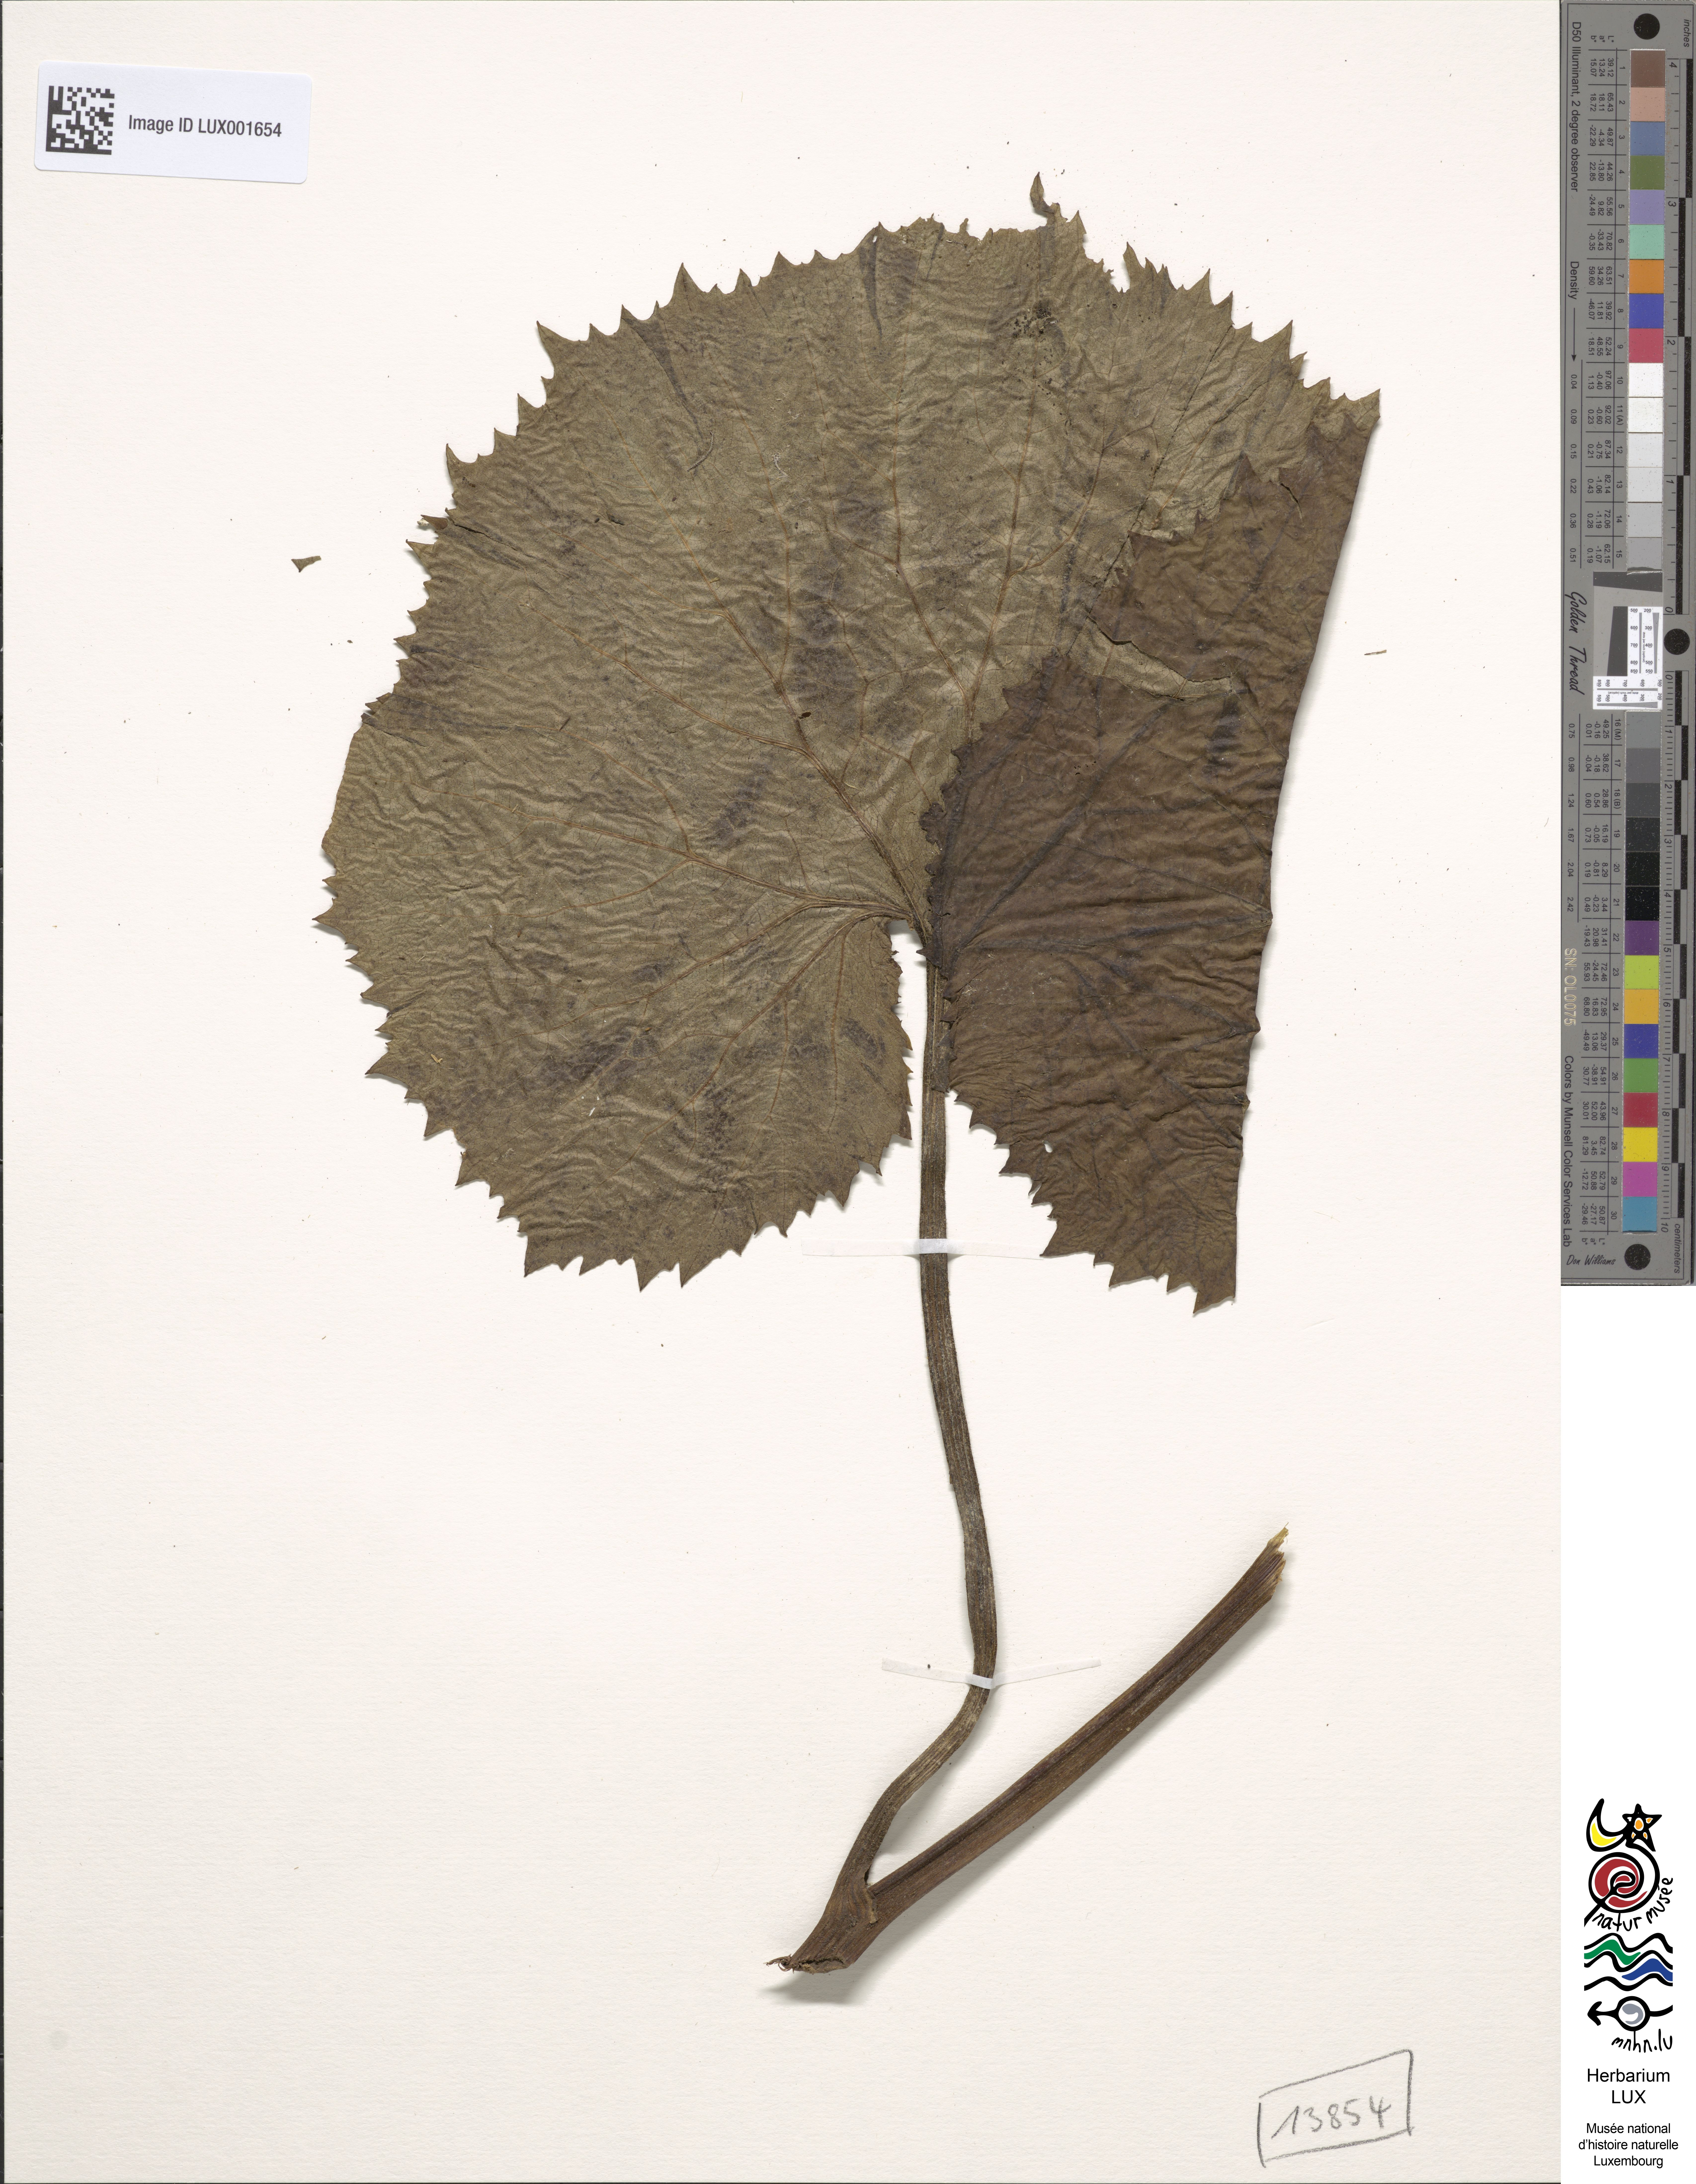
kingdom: Plantae
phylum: Tracheophyta
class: Magnoliopsida
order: Asterales
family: Asteraceae
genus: Adenostyles
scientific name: Adenostyles alliariae
